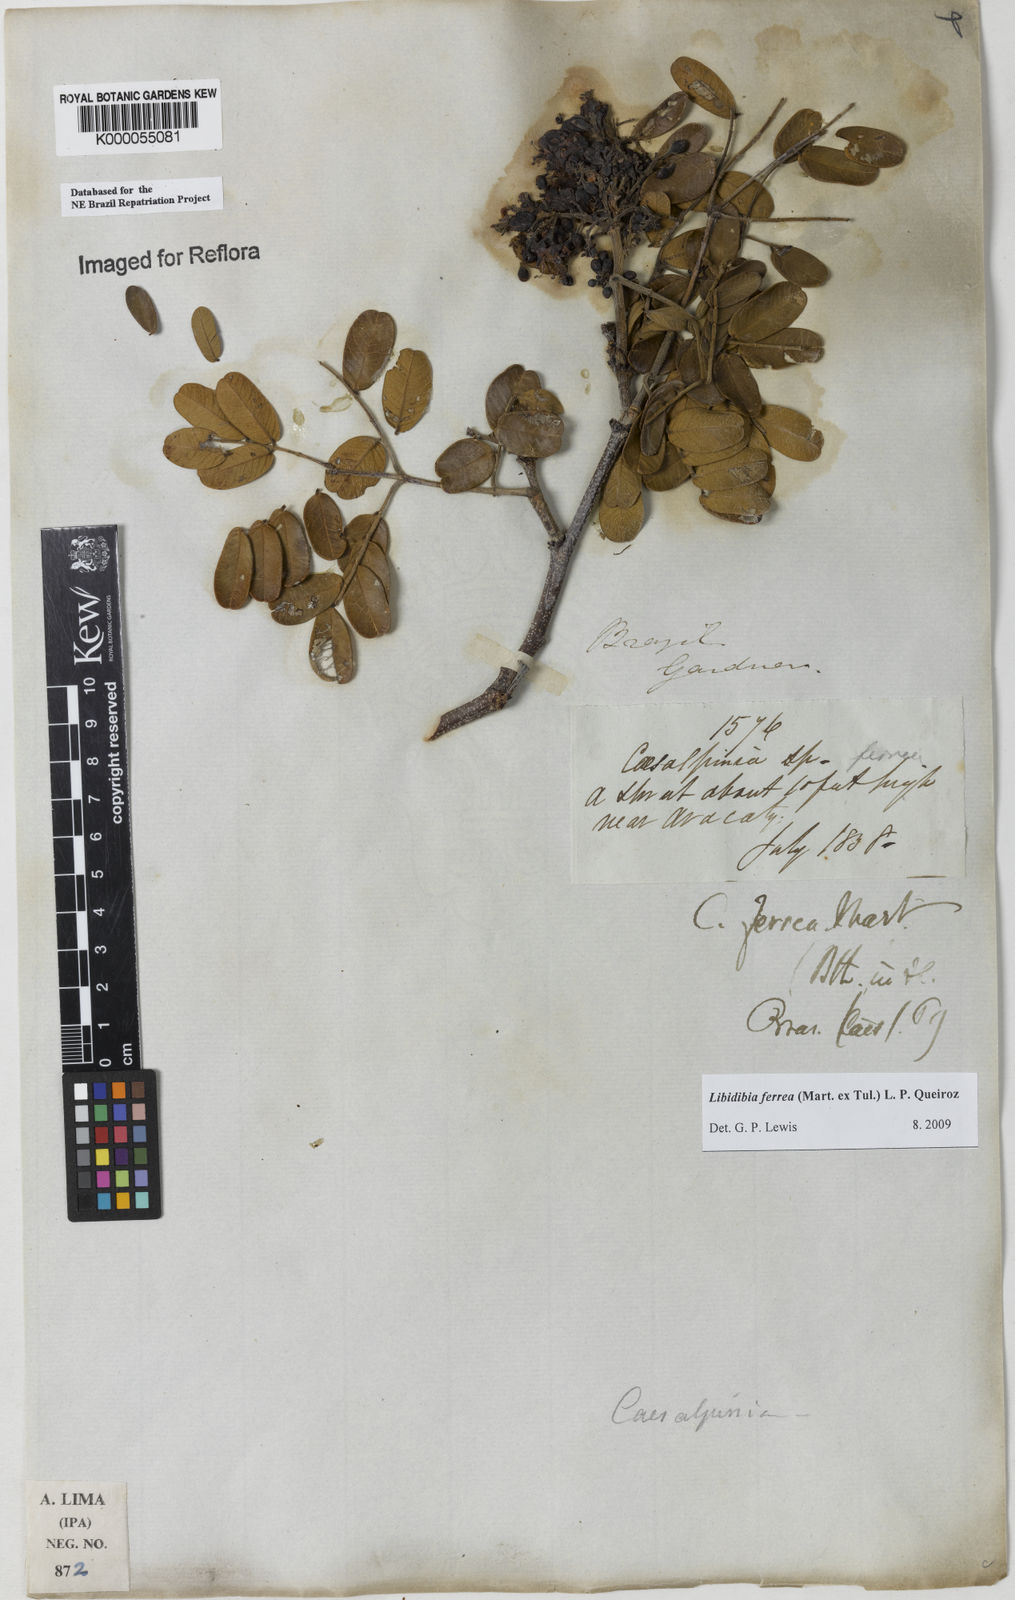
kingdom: Plantae
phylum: Tracheophyta
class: Magnoliopsida
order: Fabales
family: Fabaceae
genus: Libidibia
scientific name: Libidibia ferrea
